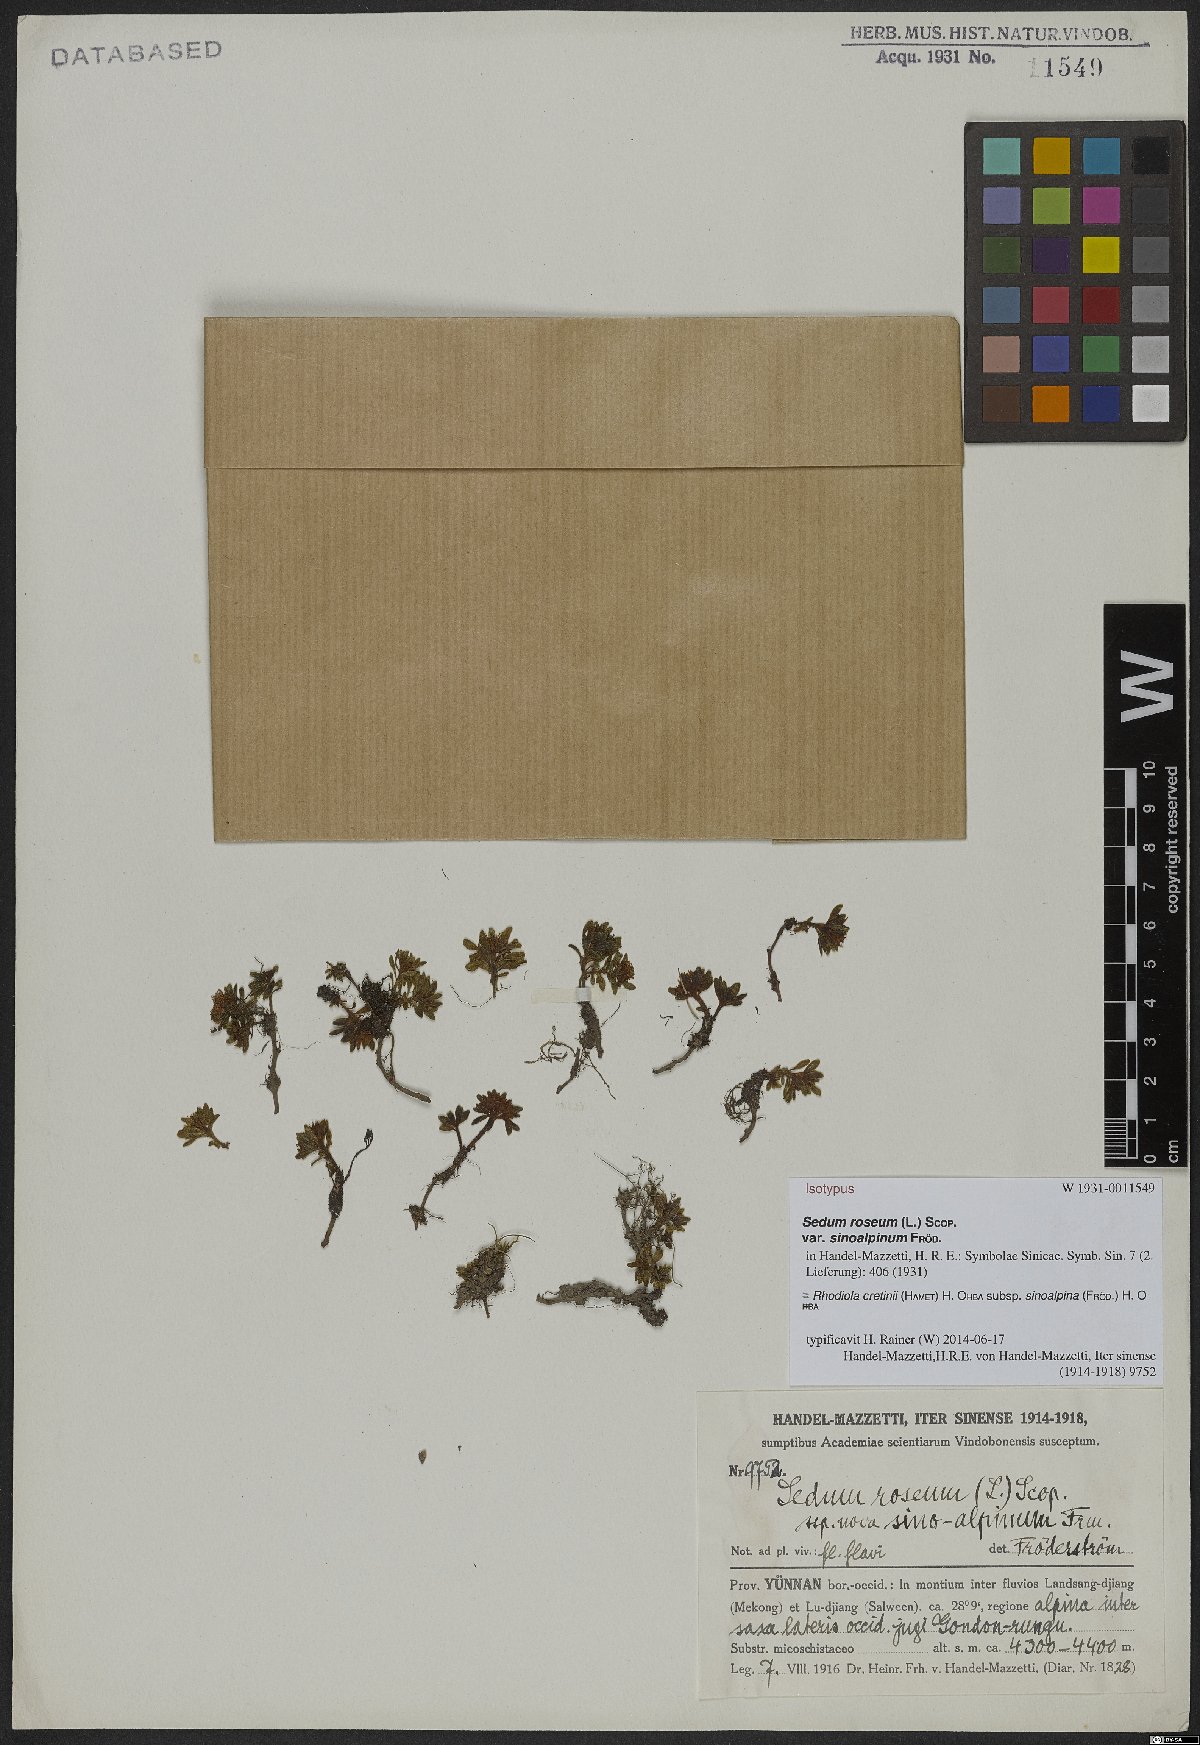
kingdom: Plantae
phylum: Tracheophyta
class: Magnoliopsida
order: Saxifragales
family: Crassulaceae
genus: Rhodiola
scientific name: Rhodiola cretinii
